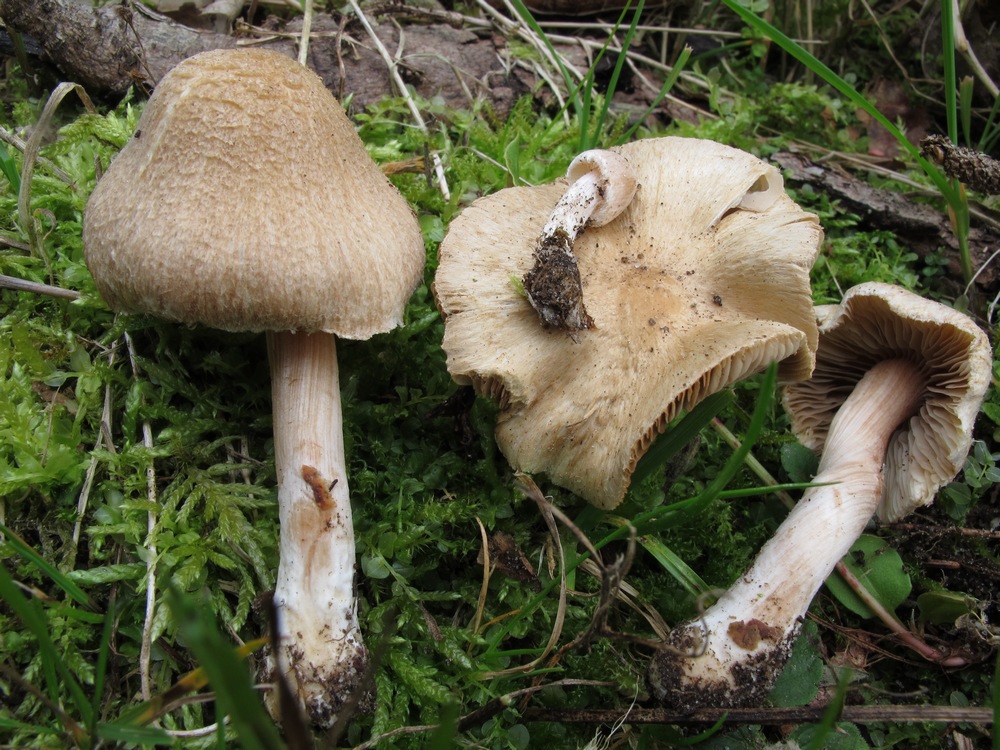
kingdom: Fungi
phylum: Basidiomycota
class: Agaricomycetes
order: Agaricales
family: Inocybaceae
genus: Inocybe
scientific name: Inocybe sindonia
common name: bleg trævlhat
